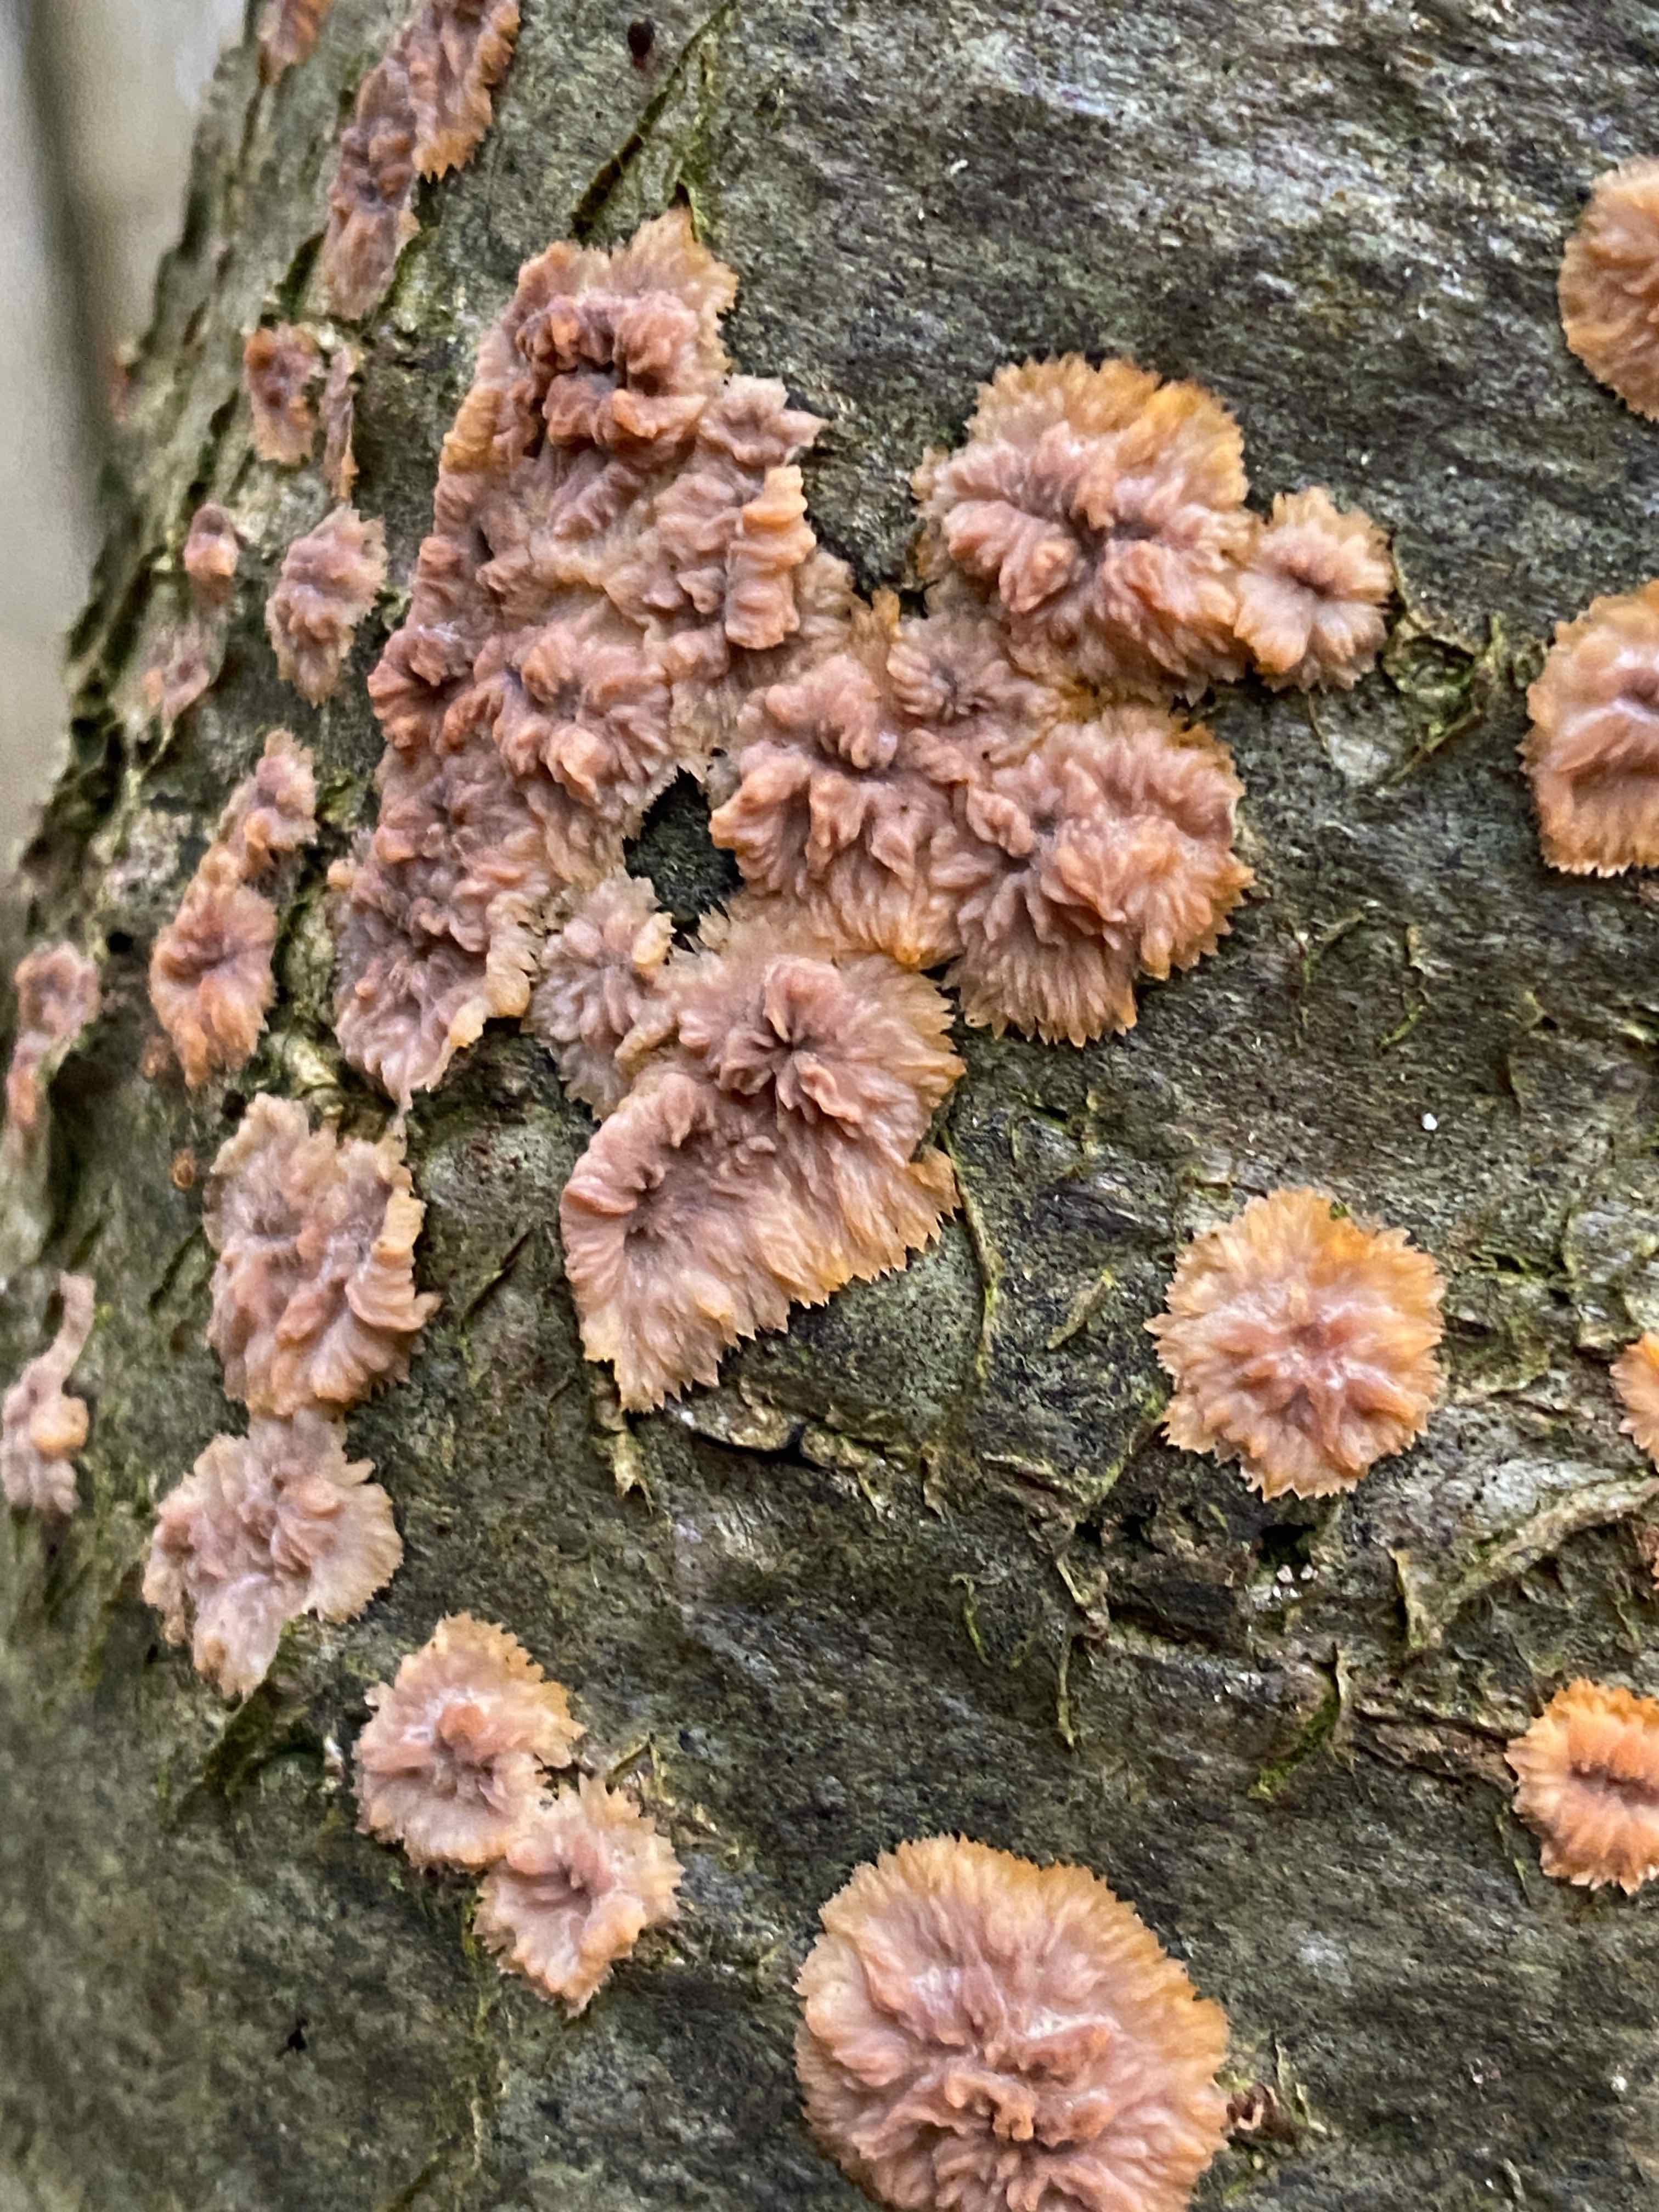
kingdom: Fungi
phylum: Basidiomycota
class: Agaricomycetes
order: Polyporales
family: Meruliaceae
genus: Phlebia
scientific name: Phlebia radiata
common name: stråle-åresvamp
